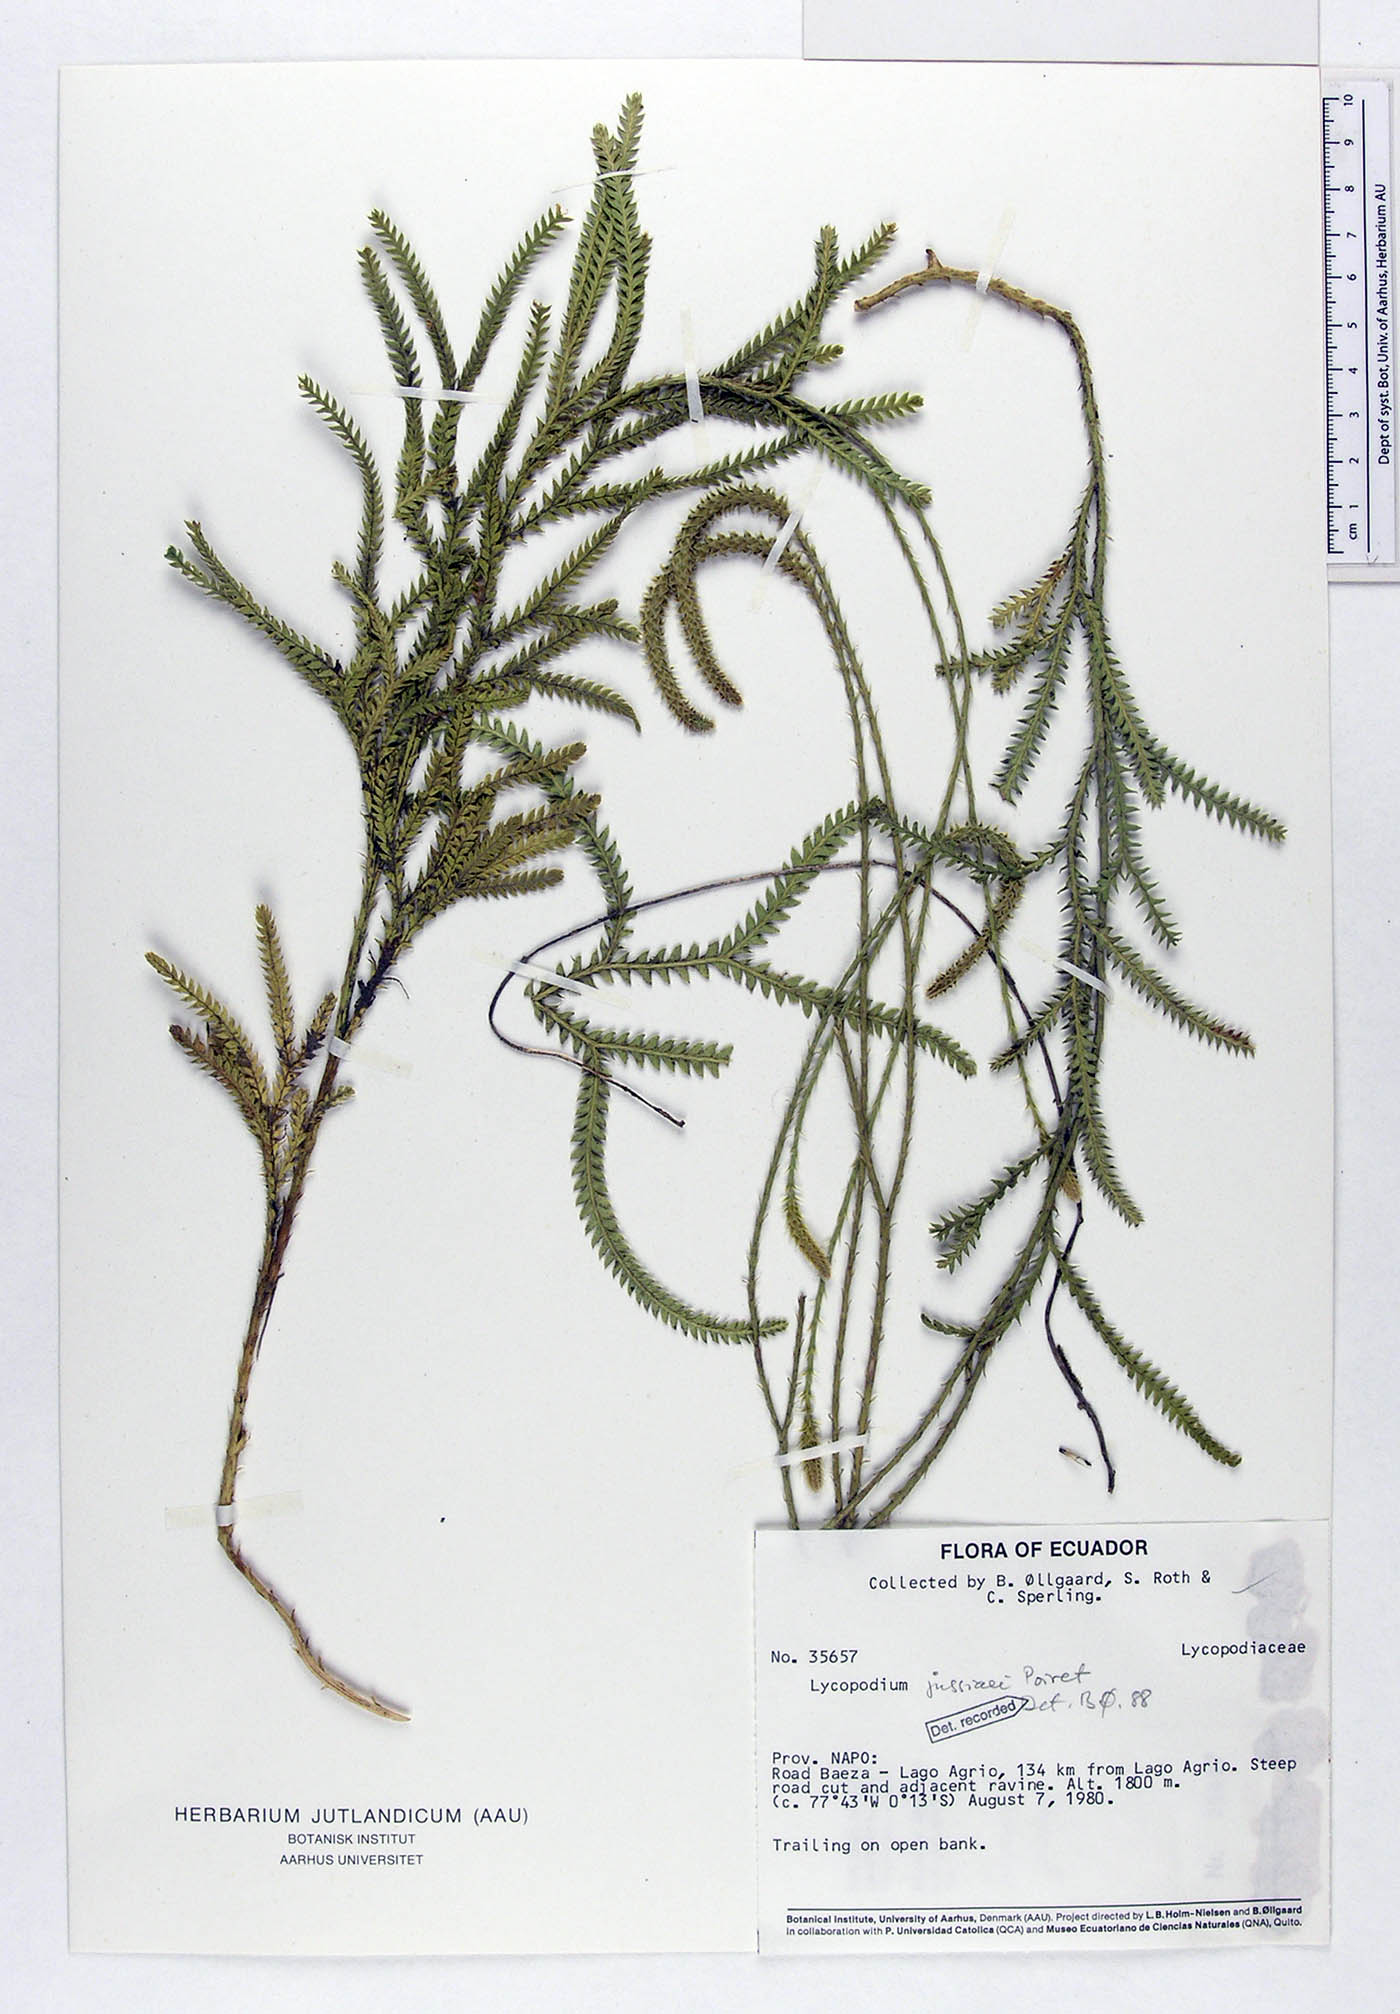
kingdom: Plantae
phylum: Tracheophyta
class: Lycopodiopsida
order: Lycopodiales
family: Lycopodiaceae
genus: Diphasium
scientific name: Diphasium jussiaei
